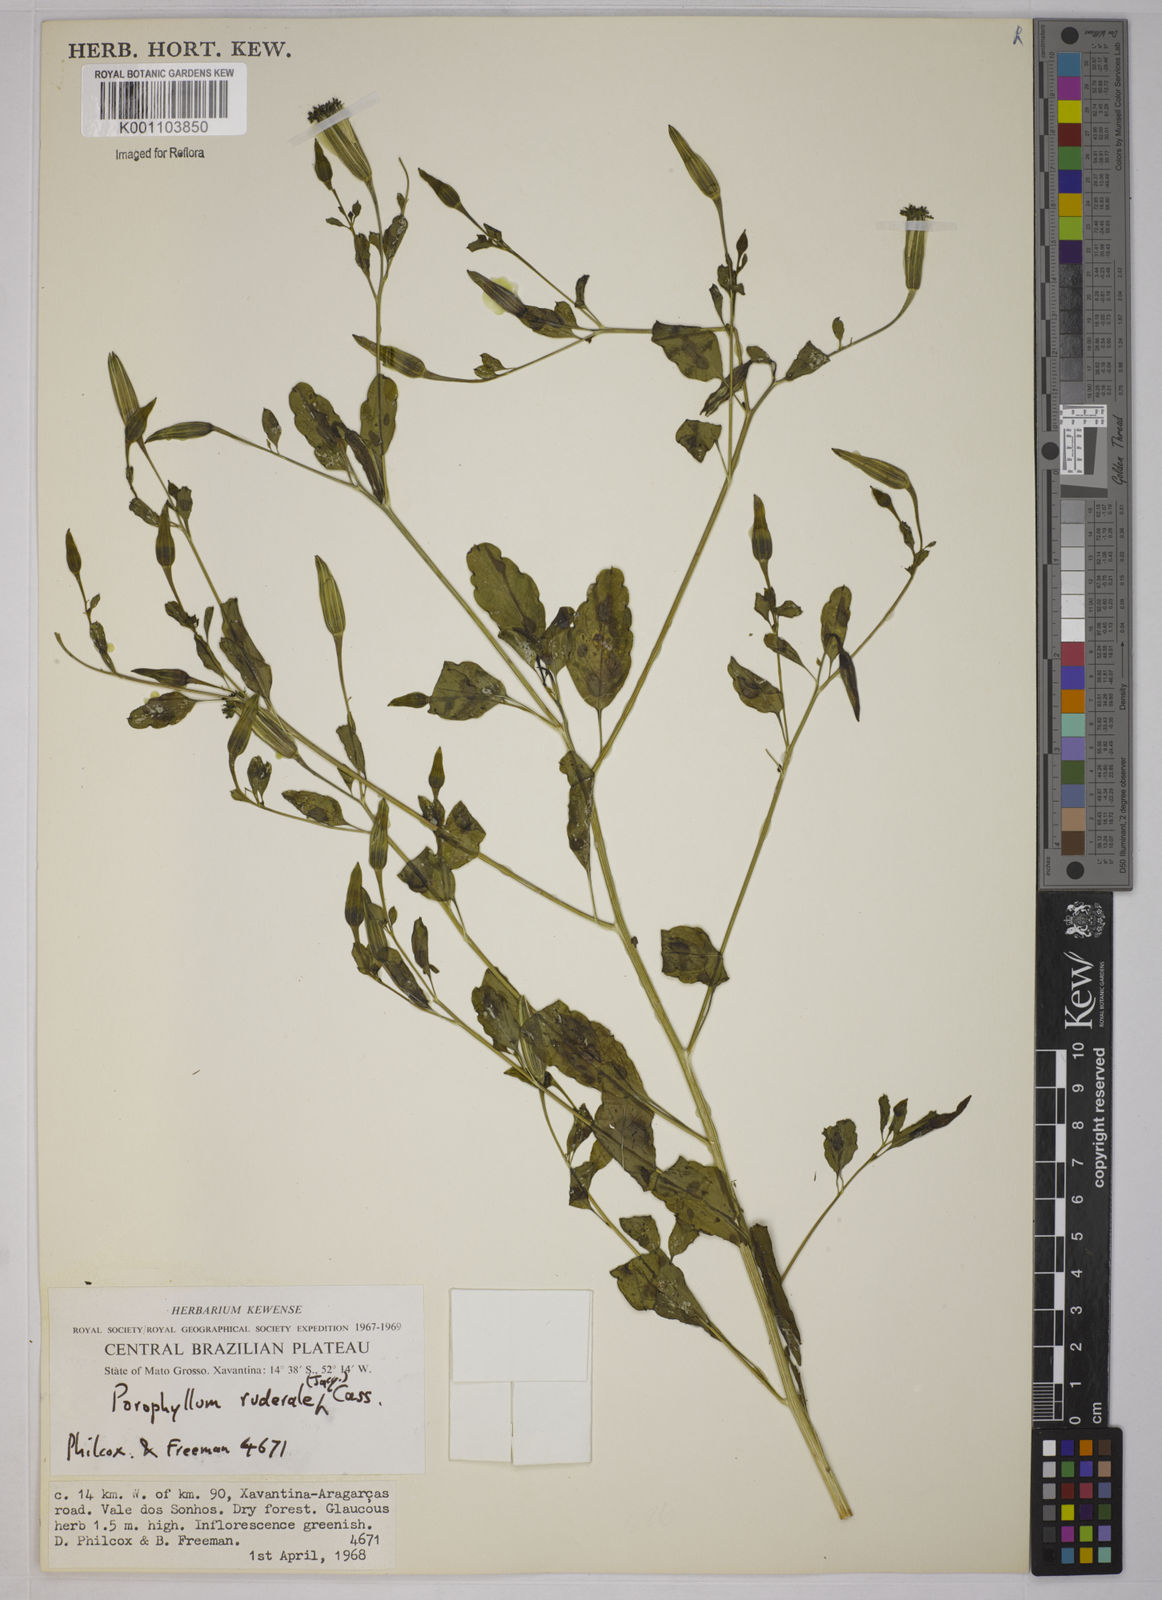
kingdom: Plantae
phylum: Tracheophyta
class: Magnoliopsida
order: Asterales
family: Asteraceae
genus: Porophyllum
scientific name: Porophyllum ruderale
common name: Yerba porosa
